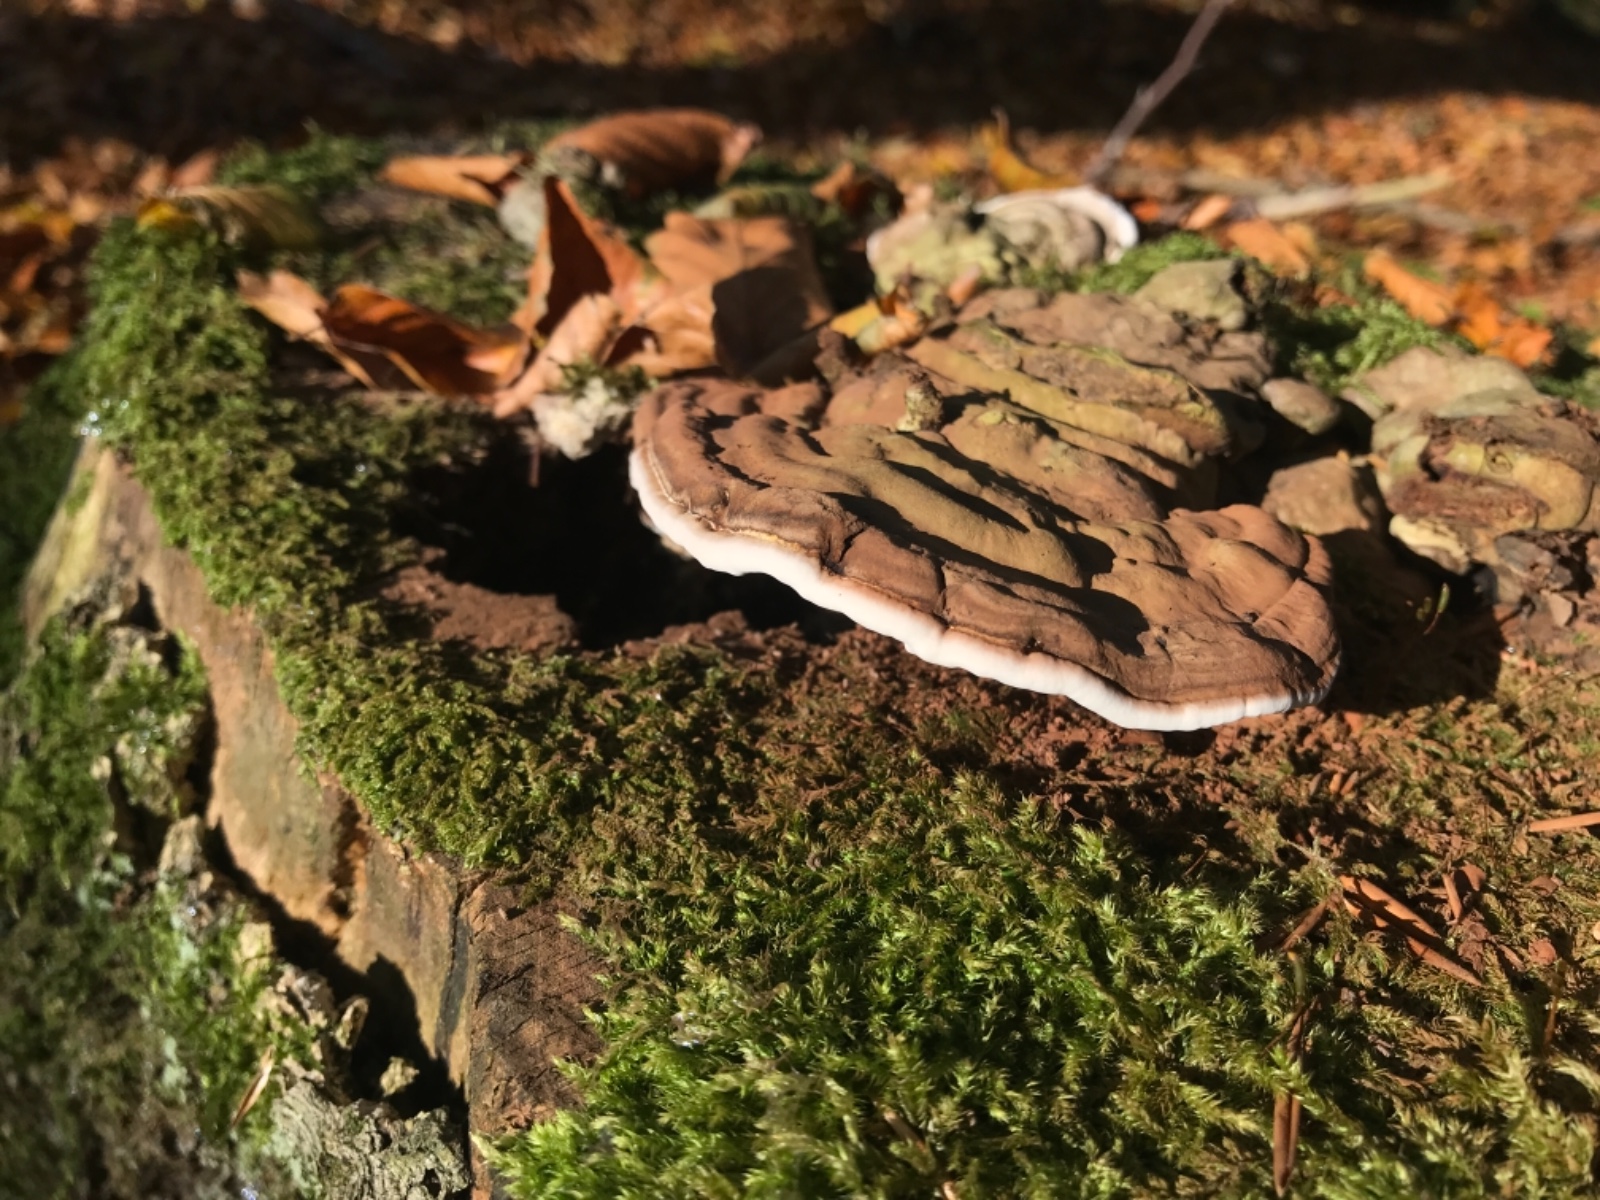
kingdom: Fungi
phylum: Basidiomycota
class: Agaricomycetes
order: Polyporales
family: Polyporaceae
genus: Ganoderma
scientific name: Ganoderma applanatum
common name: flad lakporesvamp
